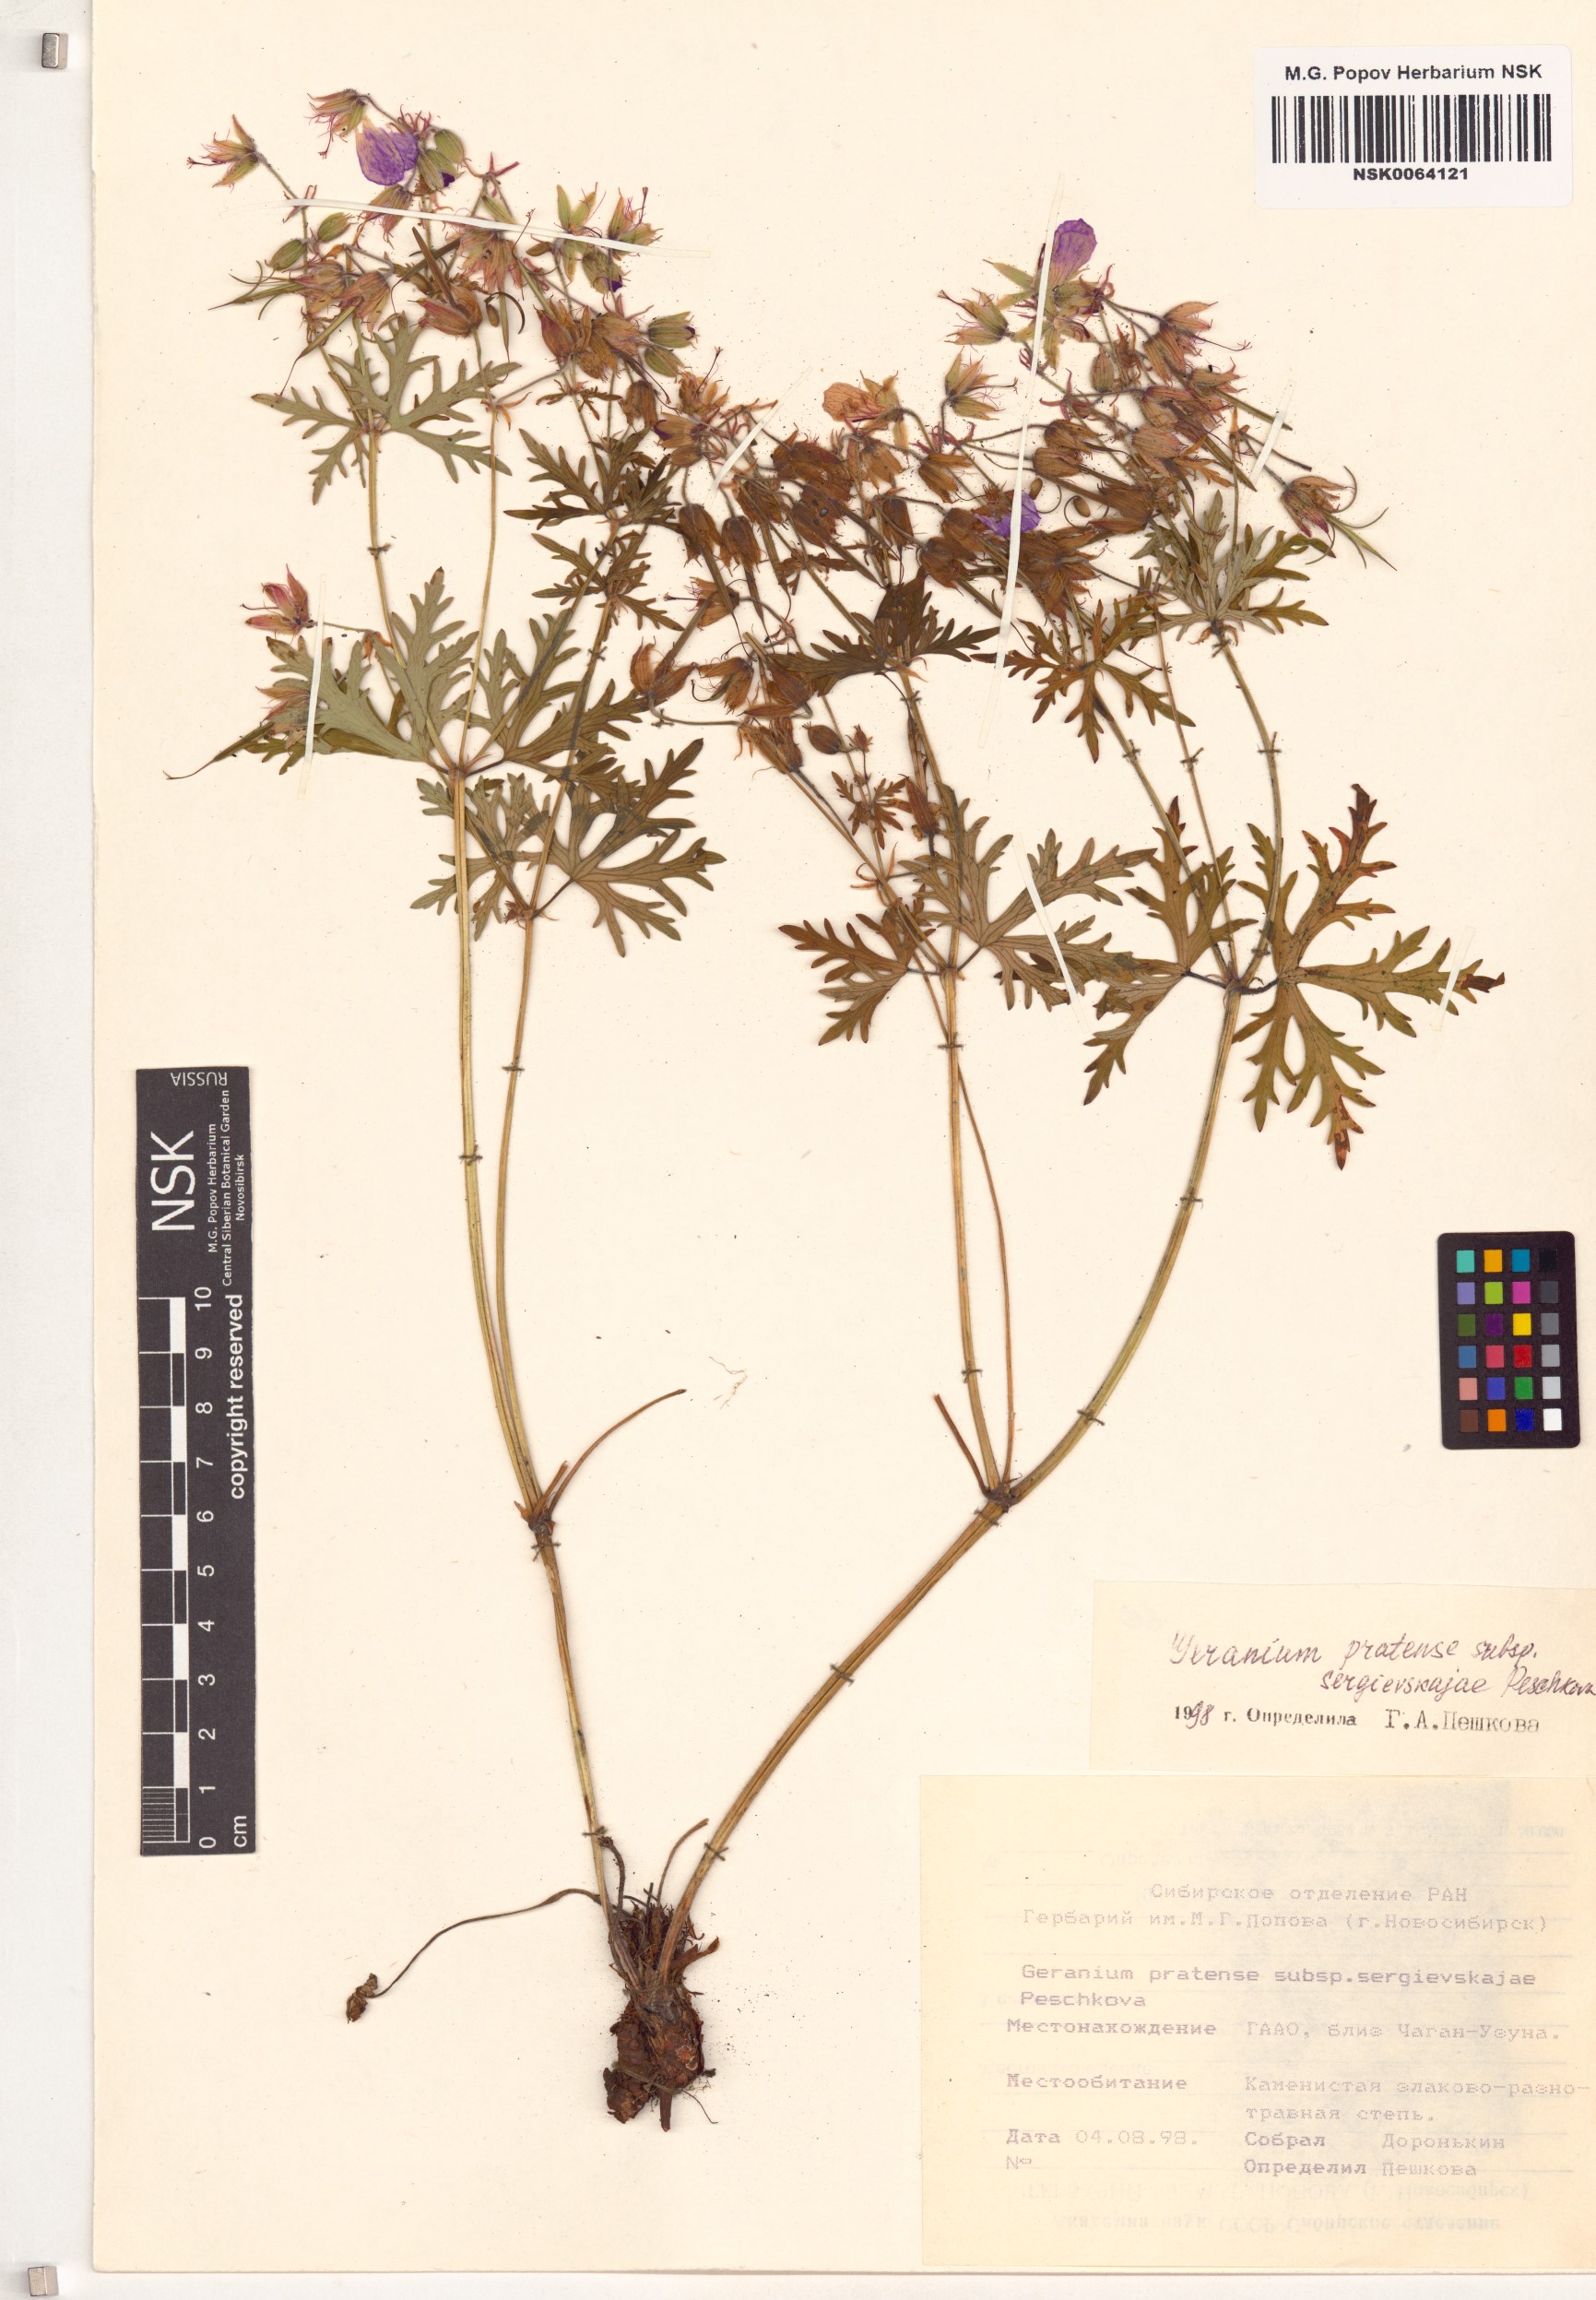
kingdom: Plantae
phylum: Tracheophyta
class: Magnoliopsida
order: Geraniales
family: Geraniaceae
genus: Geranium
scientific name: Geranium pratense
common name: Meadow crane's-bill
